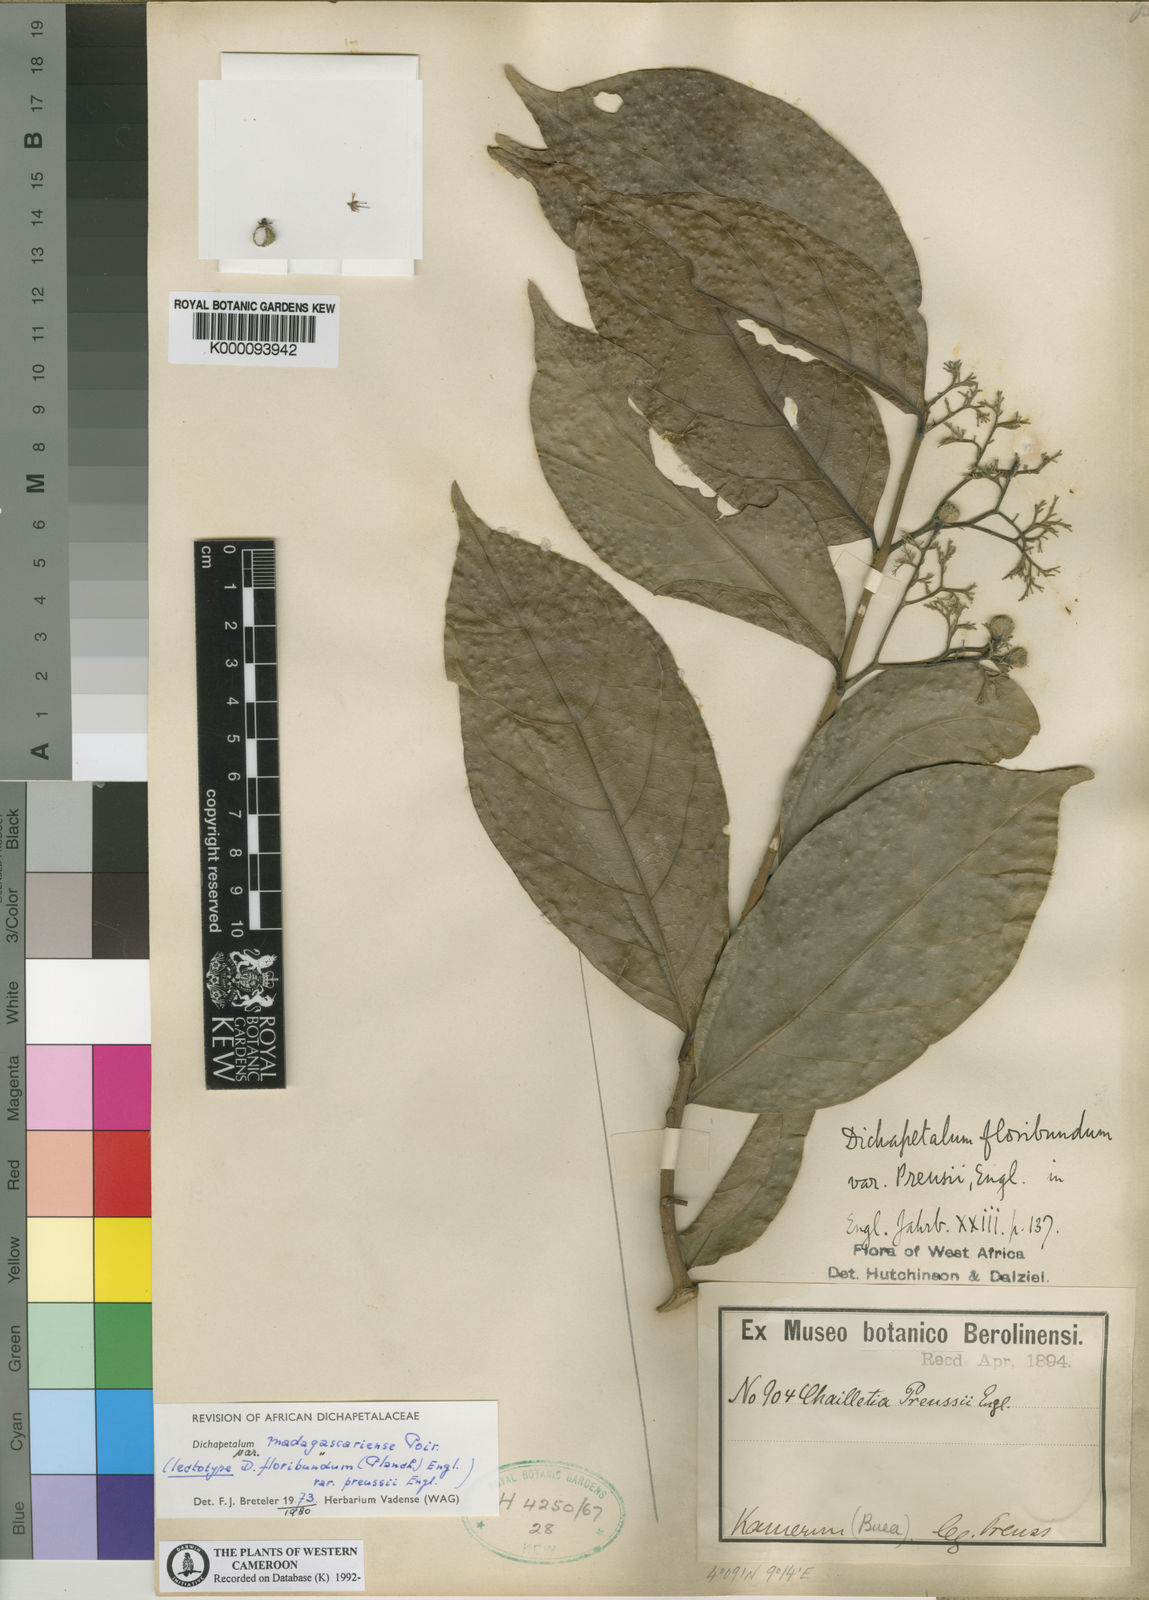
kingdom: Plantae
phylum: Tracheophyta
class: Magnoliopsida
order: Malpighiales
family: Dichapetalaceae
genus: Dichapetalum
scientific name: Dichapetalum madagascariense
